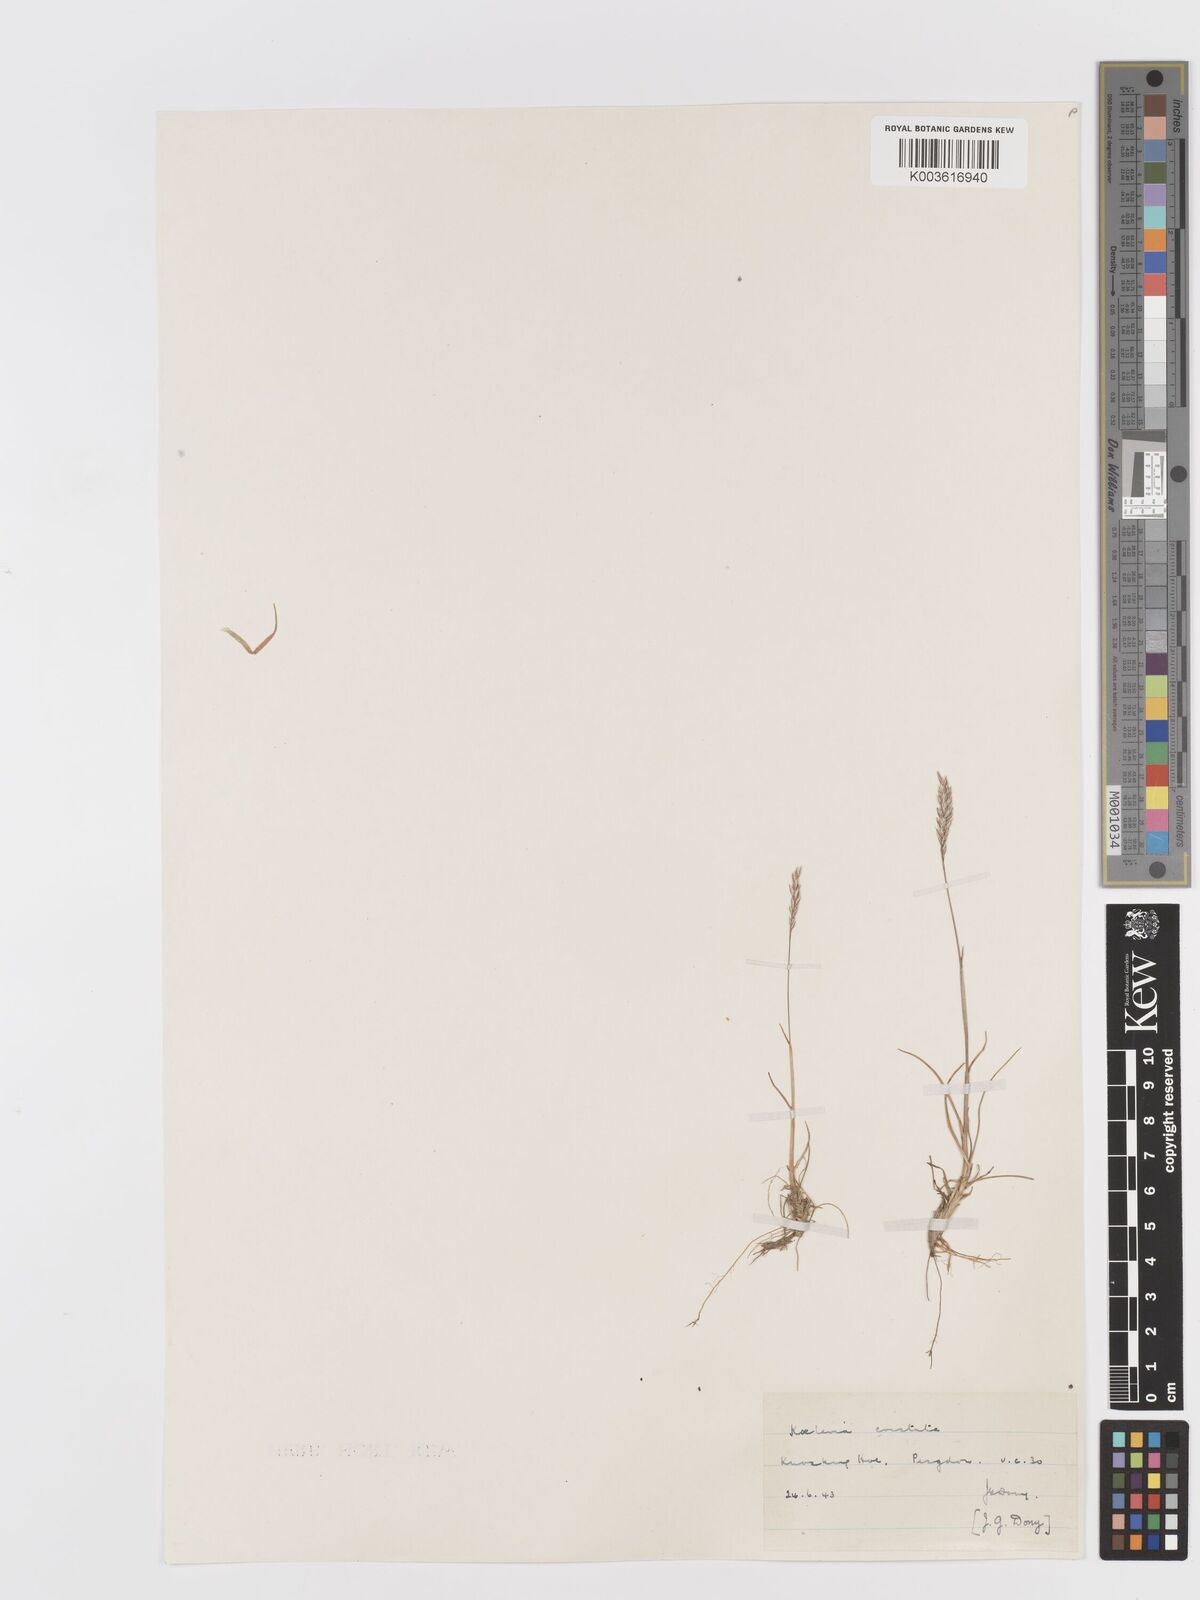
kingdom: Plantae
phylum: Tracheophyta
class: Liliopsida
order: Poales
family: Poaceae
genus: Koeleria
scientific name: Koeleria macrantha
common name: Crested hair-grass
